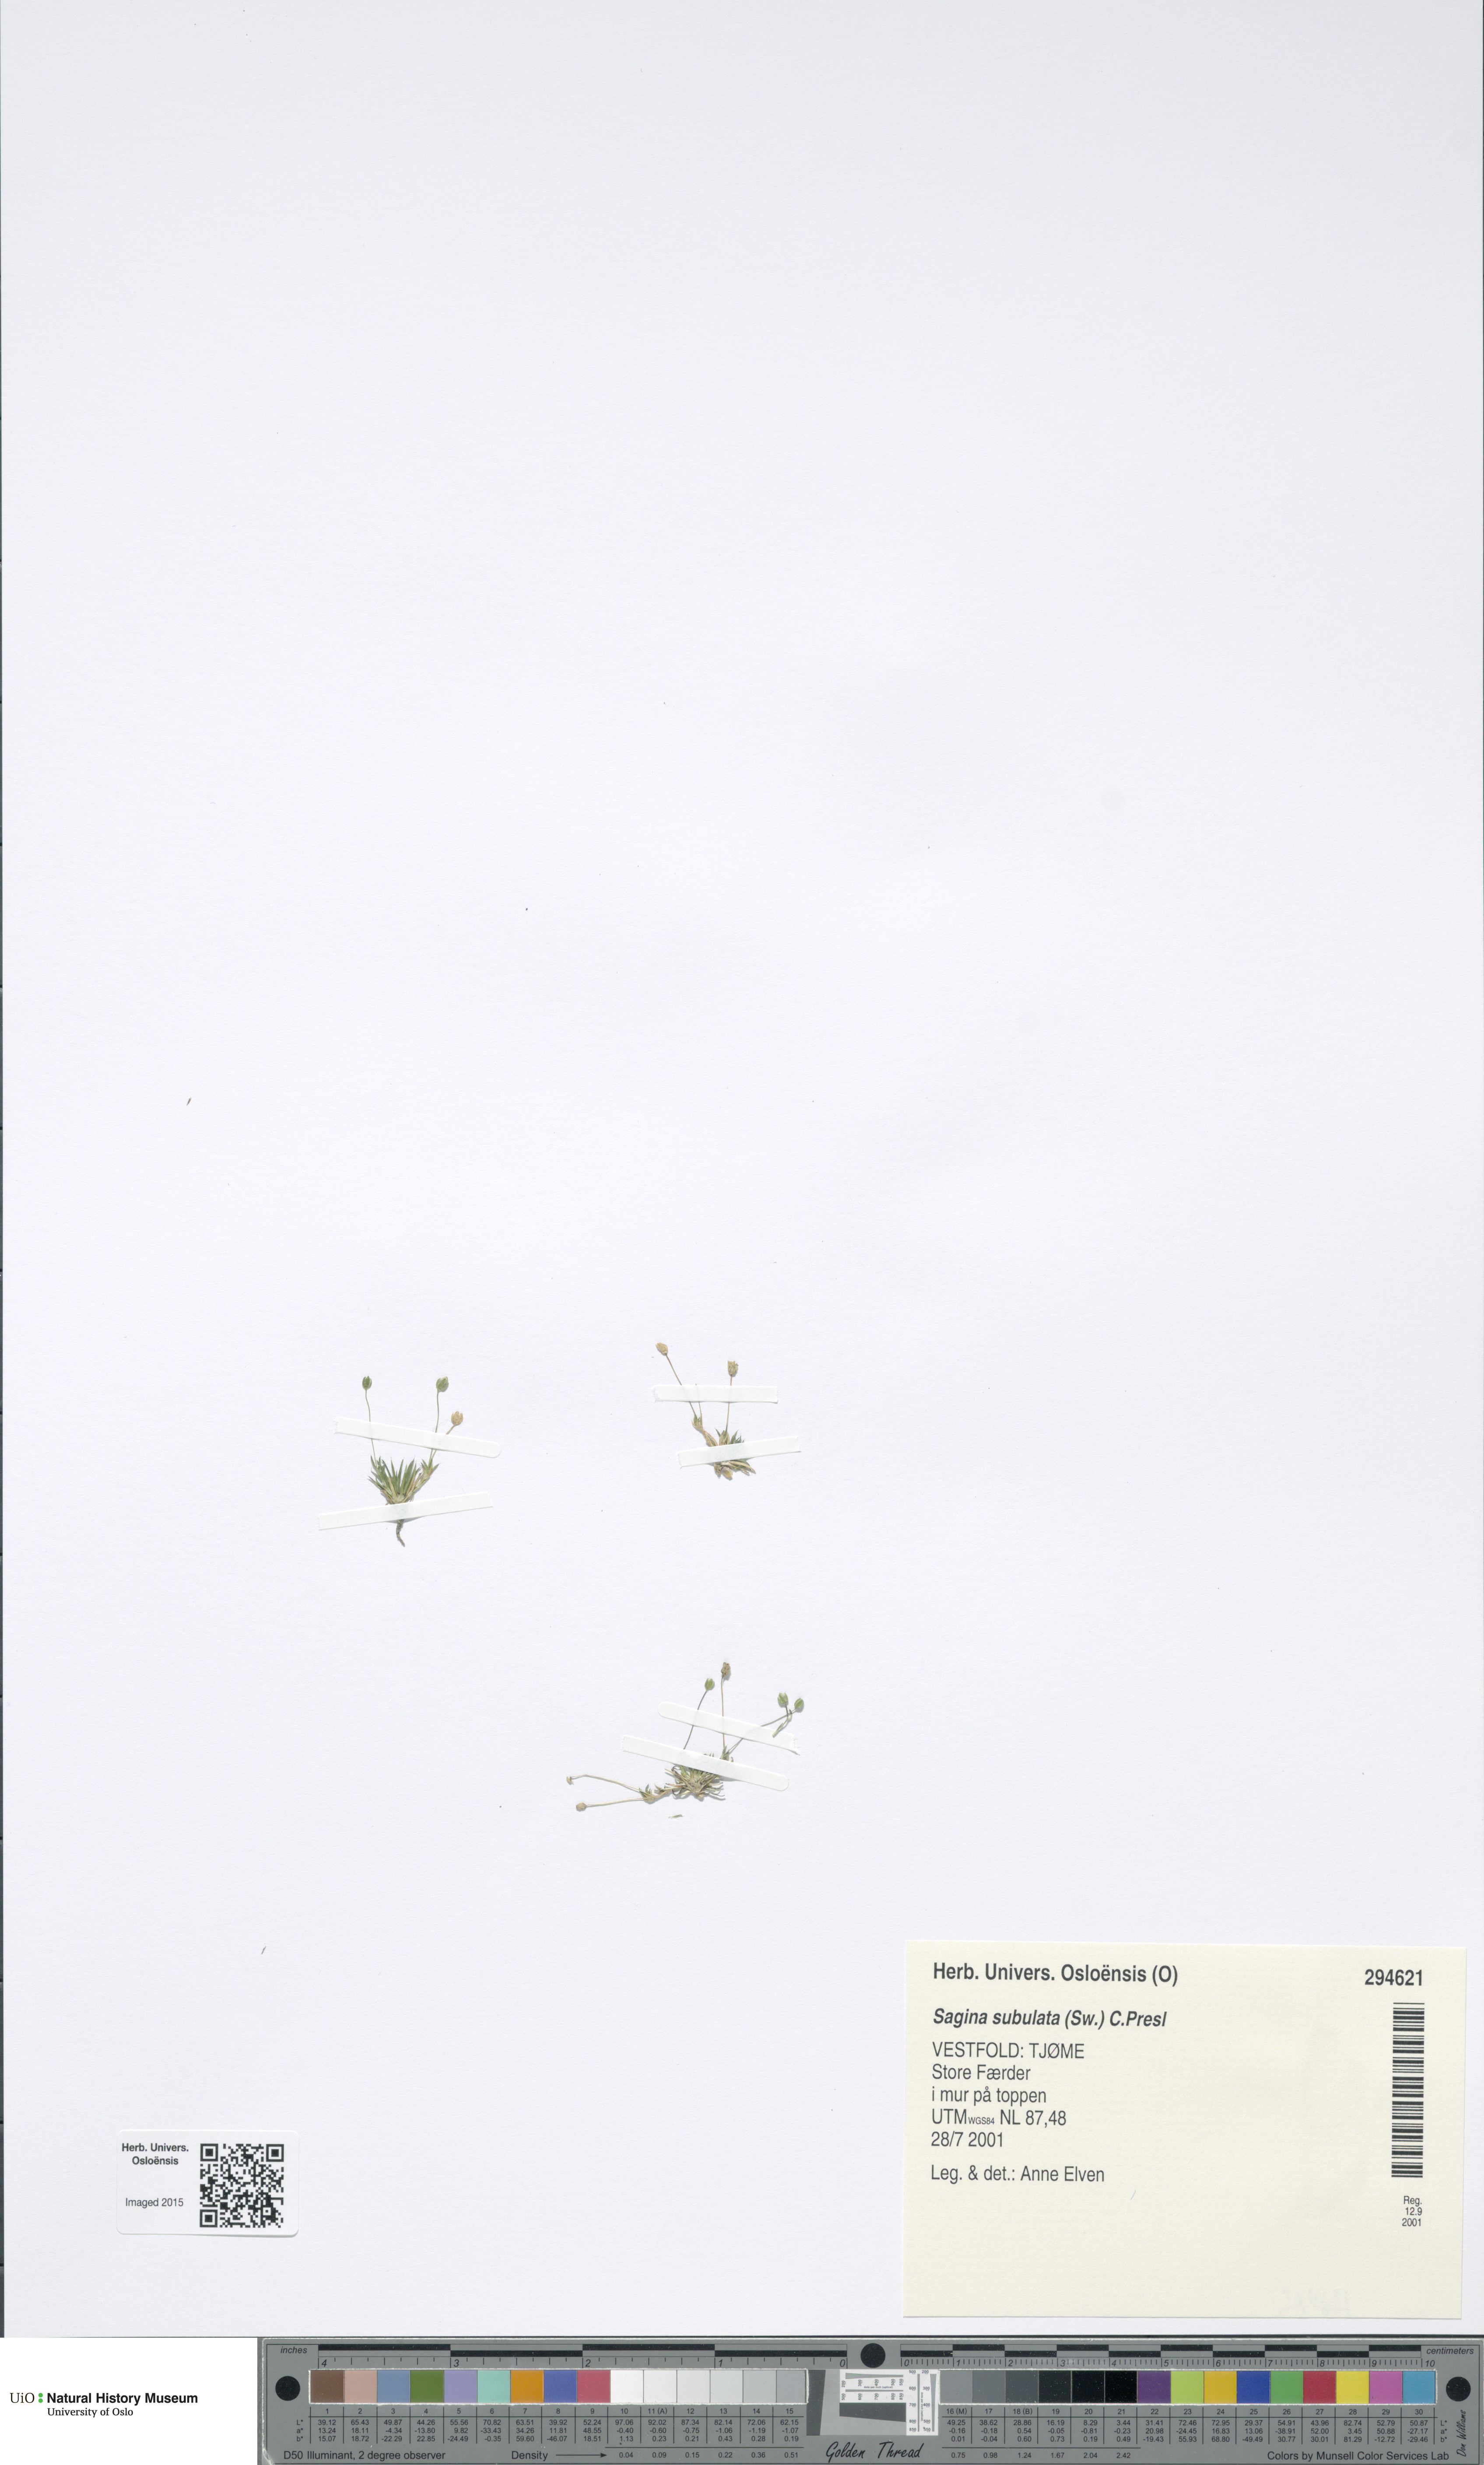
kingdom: Plantae
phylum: Tracheophyta
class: Magnoliopsida
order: Caryophyllales
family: Caryophyllaceae
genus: Sagina
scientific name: Sagina alexandrae
